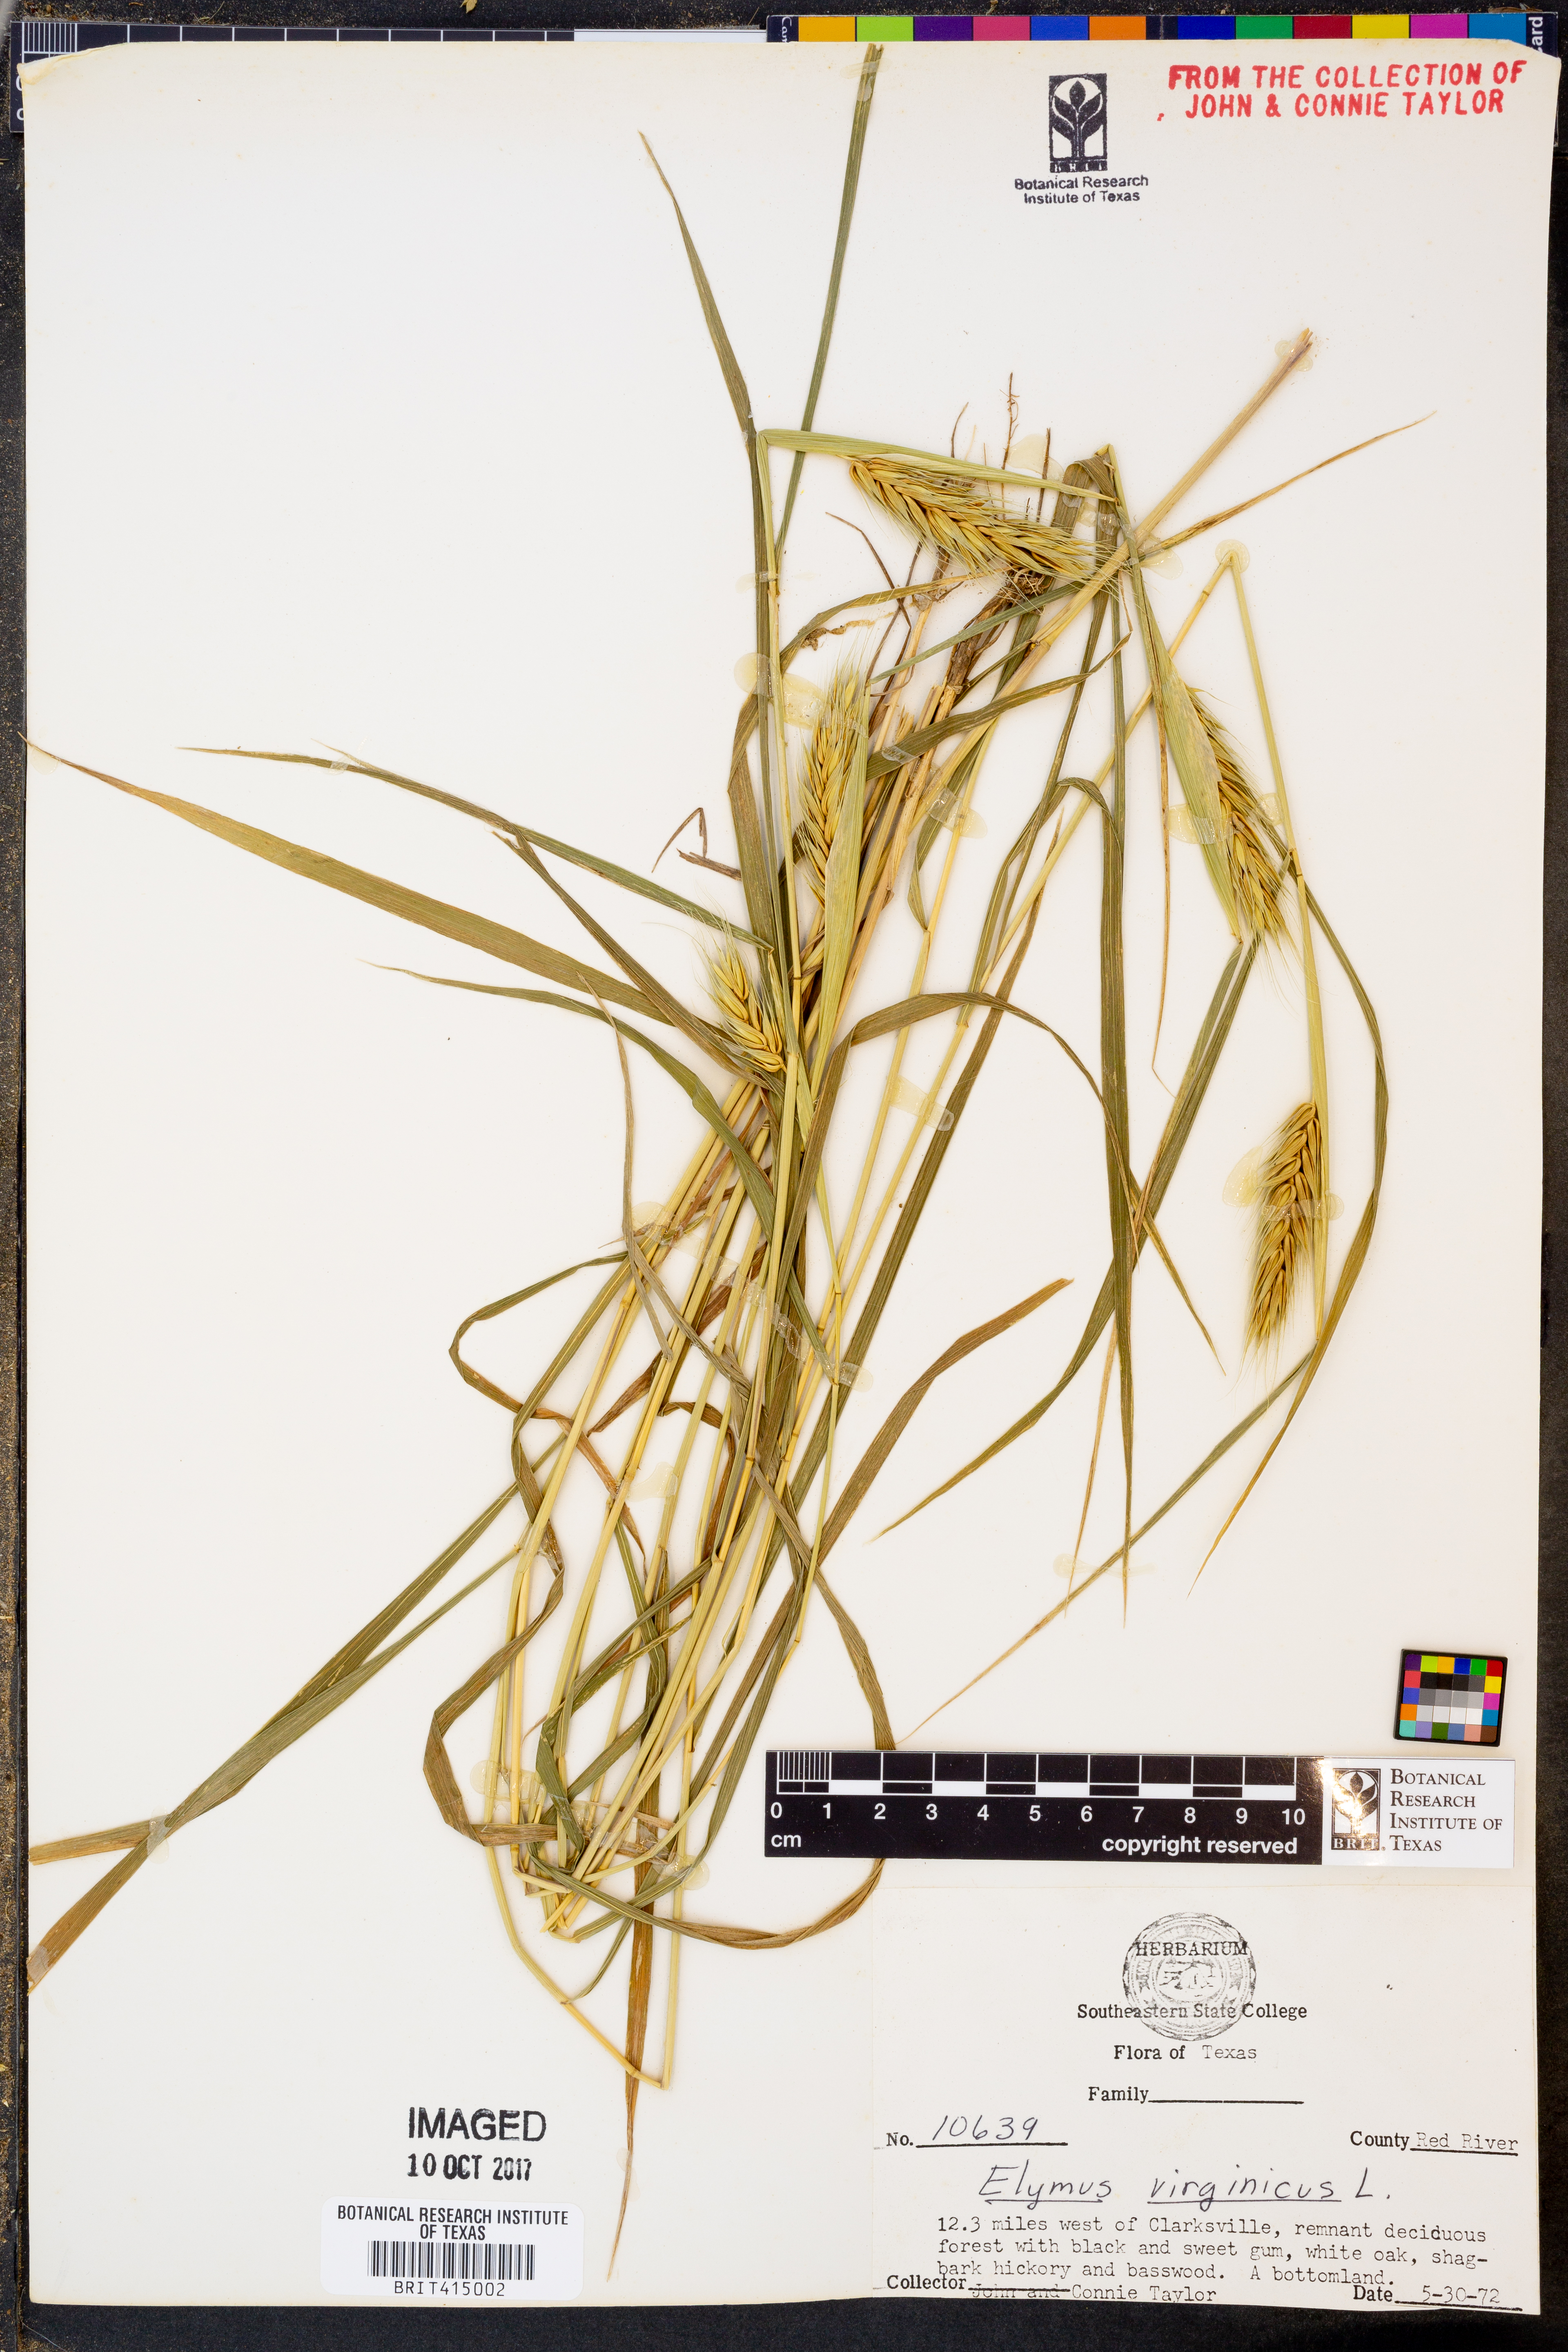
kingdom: Plantae
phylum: Tracheophyta
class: Liliopsida
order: Poales
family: Poaceae
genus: Elymus
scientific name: Elymus virginicus
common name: Common eastern wildrye
